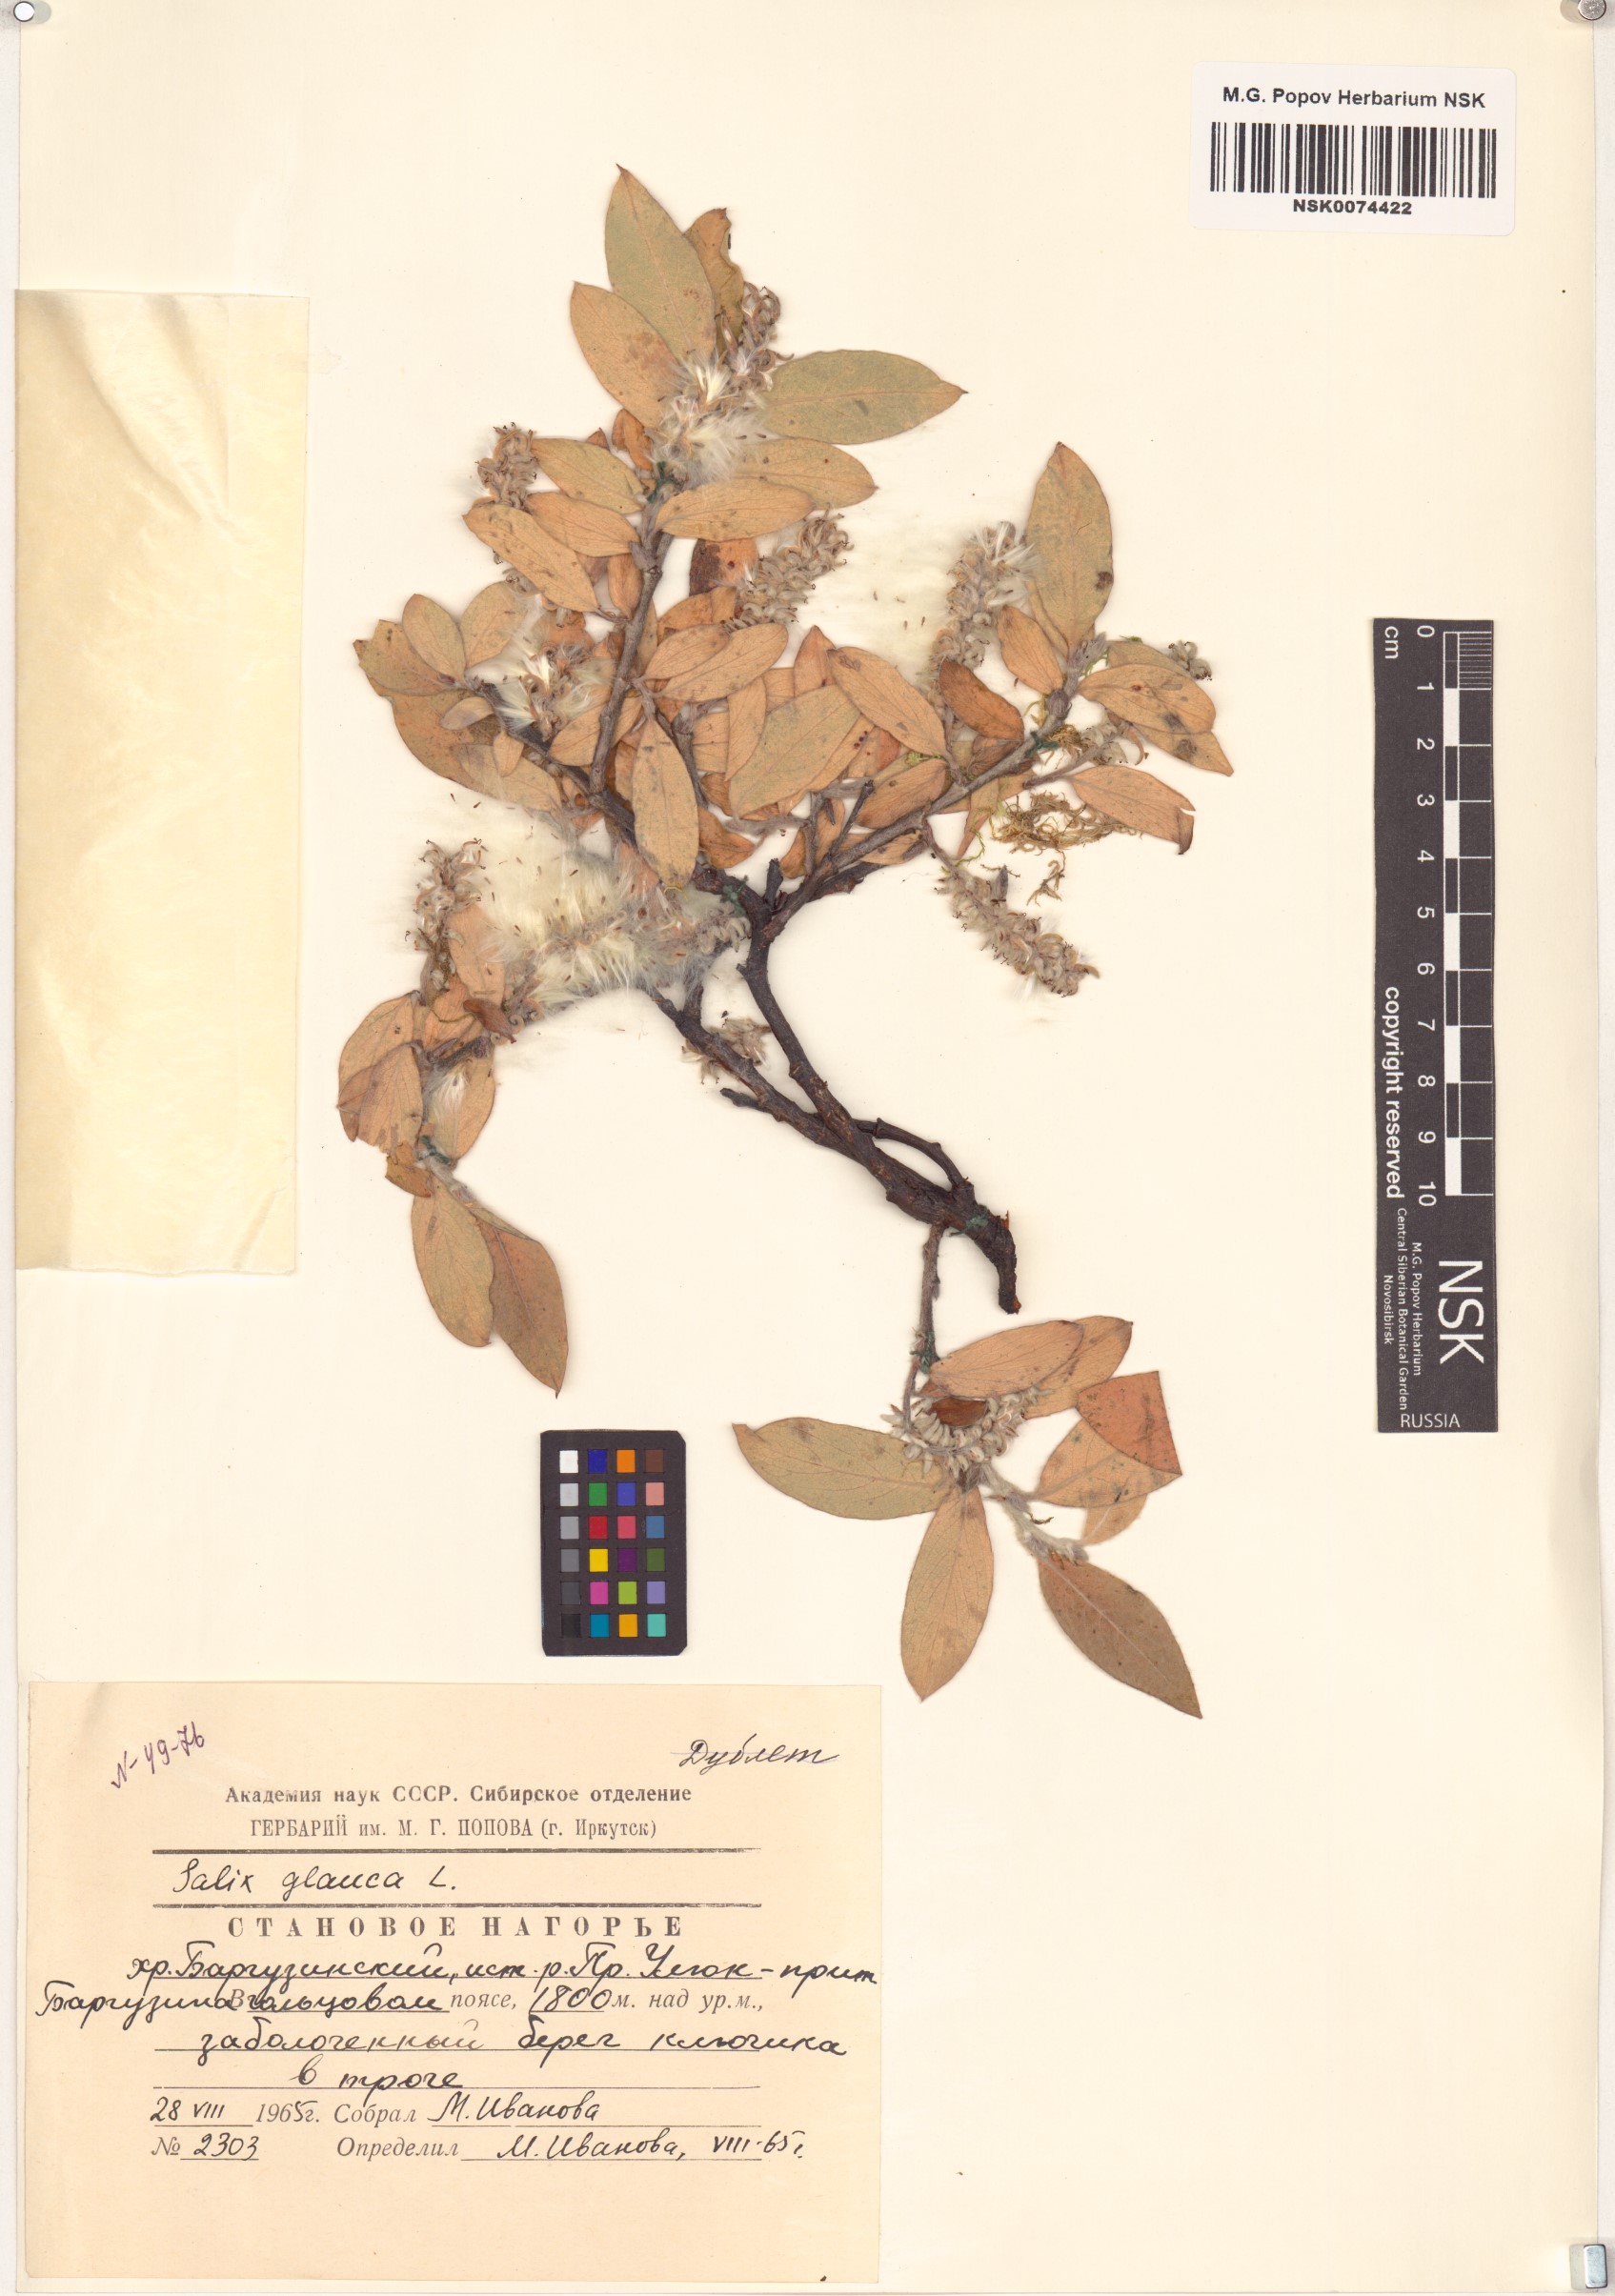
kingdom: Plantae
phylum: Tracheophyta
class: Magnoliopsida
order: Malpighiales
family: Salicaceae
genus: Salix
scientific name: Salix glauca
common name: Glaucous willow
